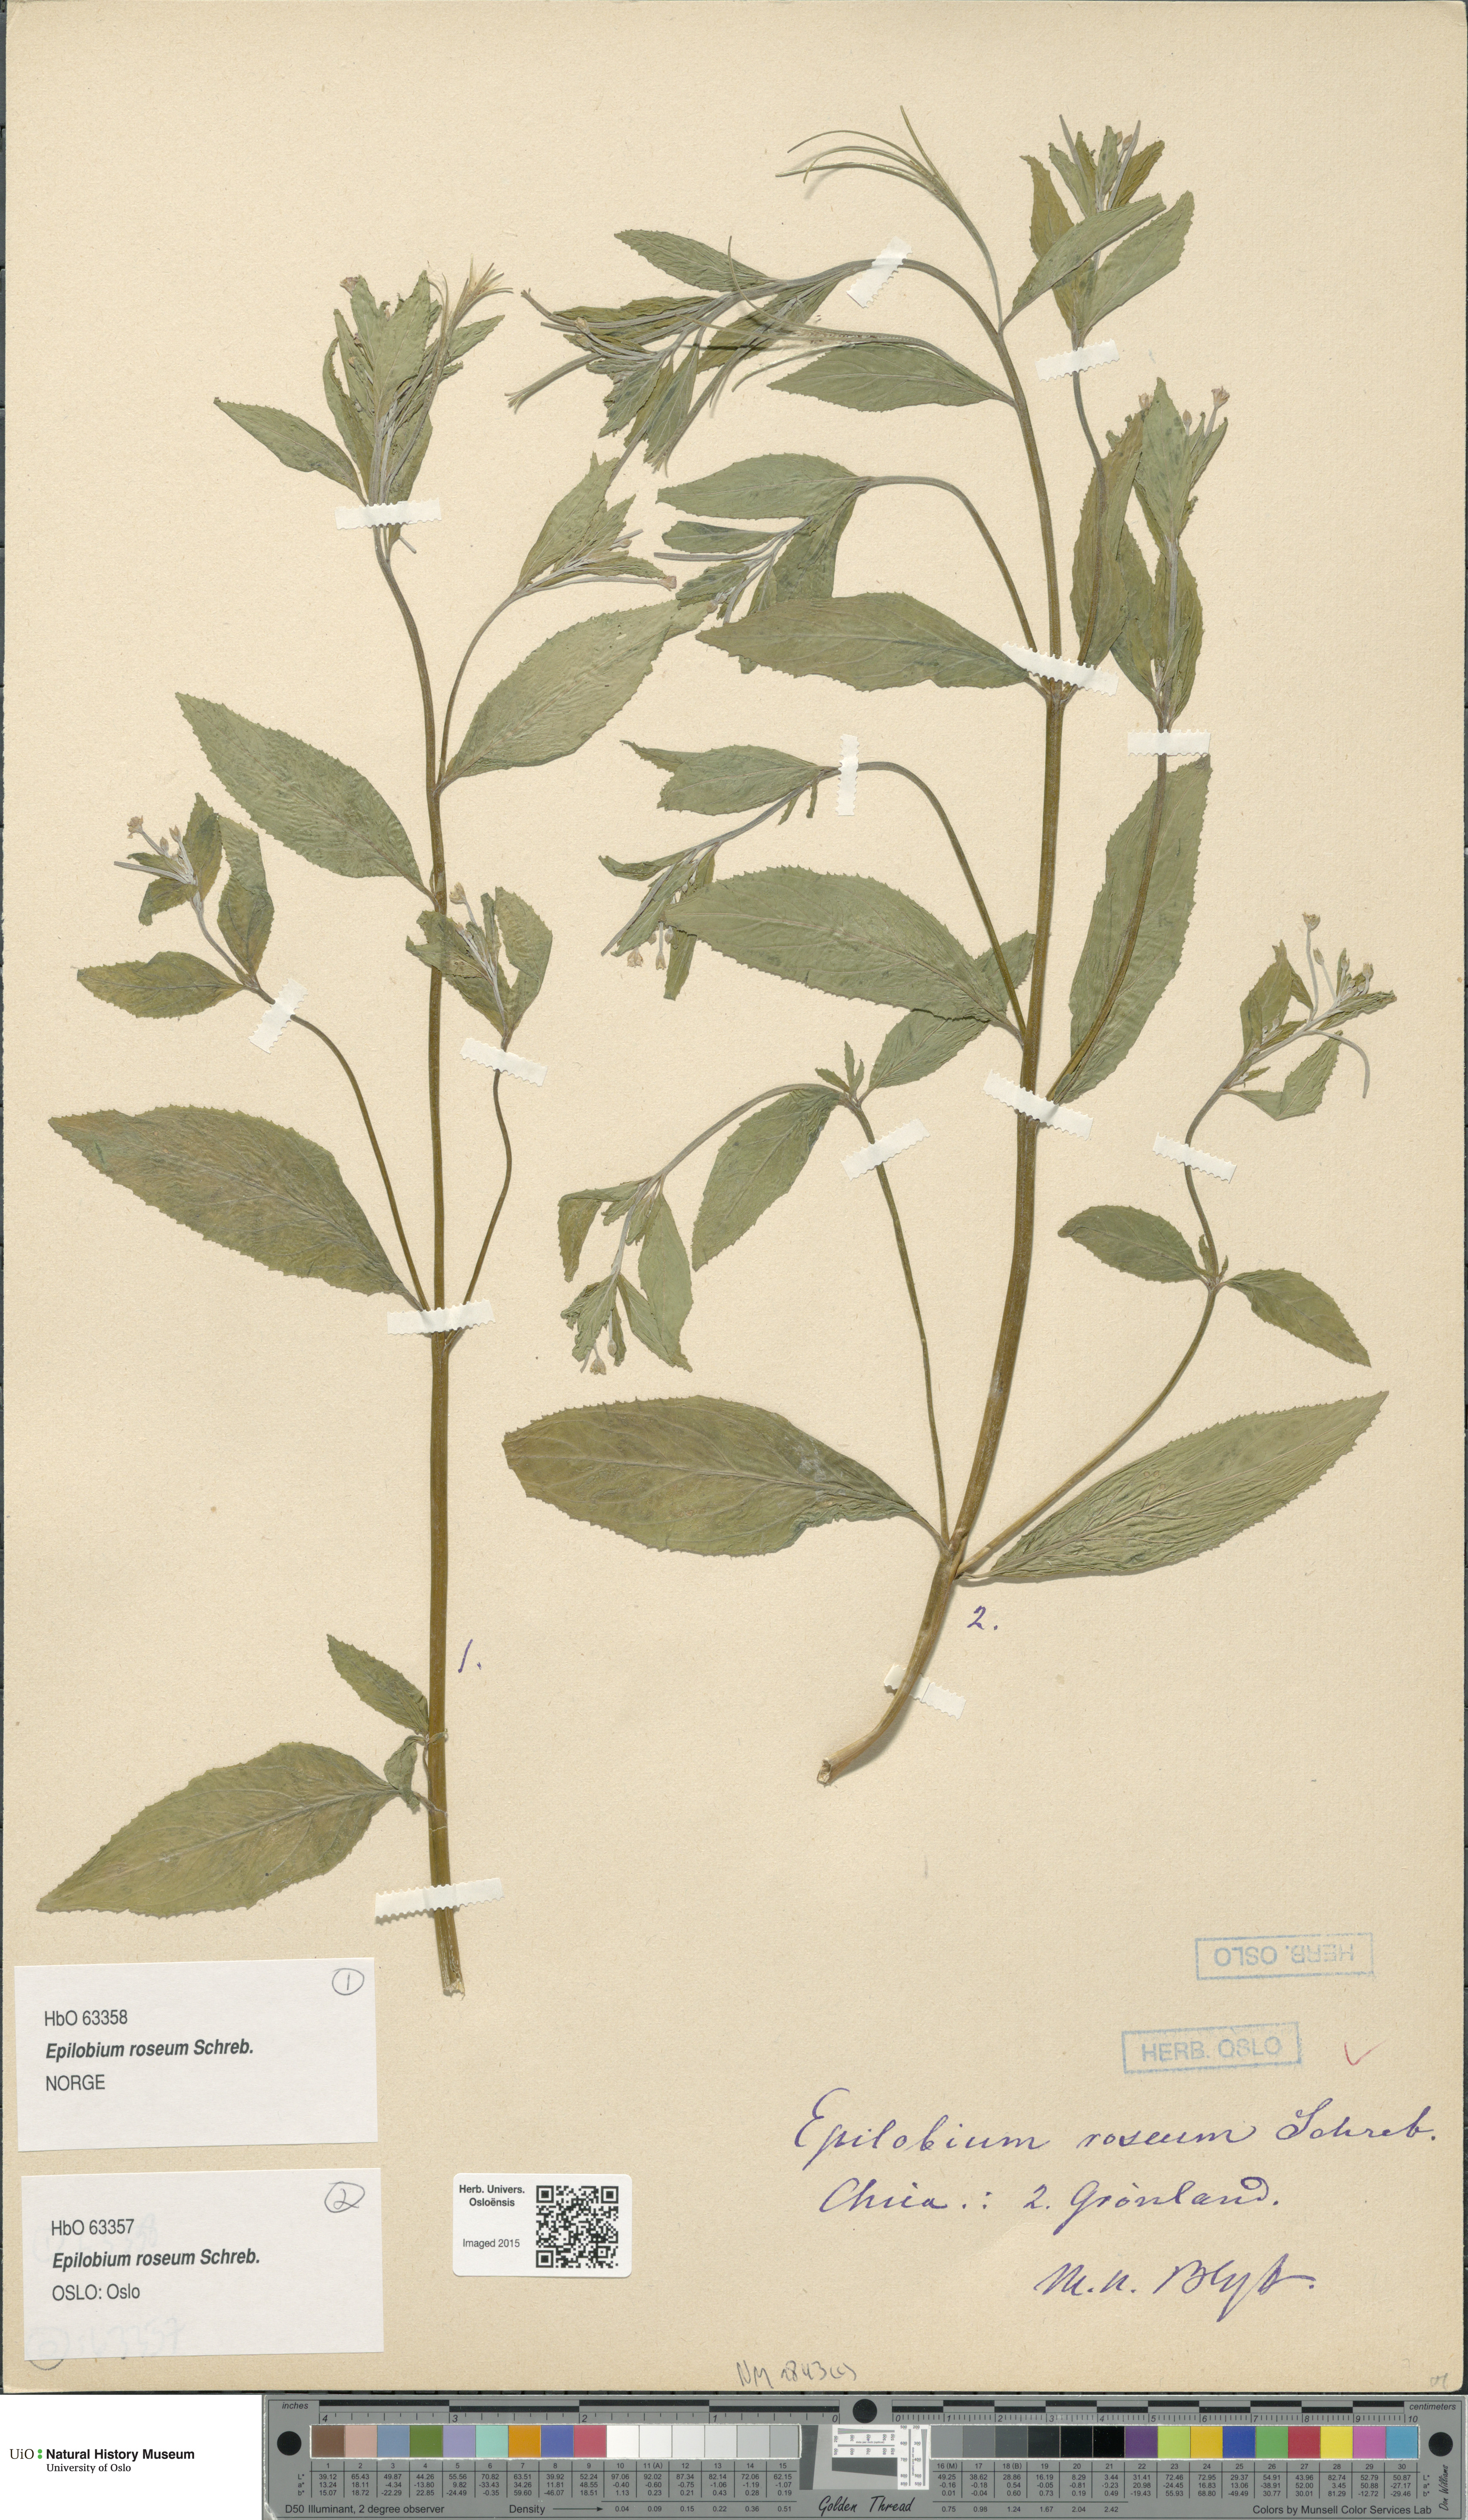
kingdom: Plantae
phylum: Tracheophyta
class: Magnoliopsida
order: Myrtales
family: Onagraceae
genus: Epilobium
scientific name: Epilobium roseum
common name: Pale willowherb
